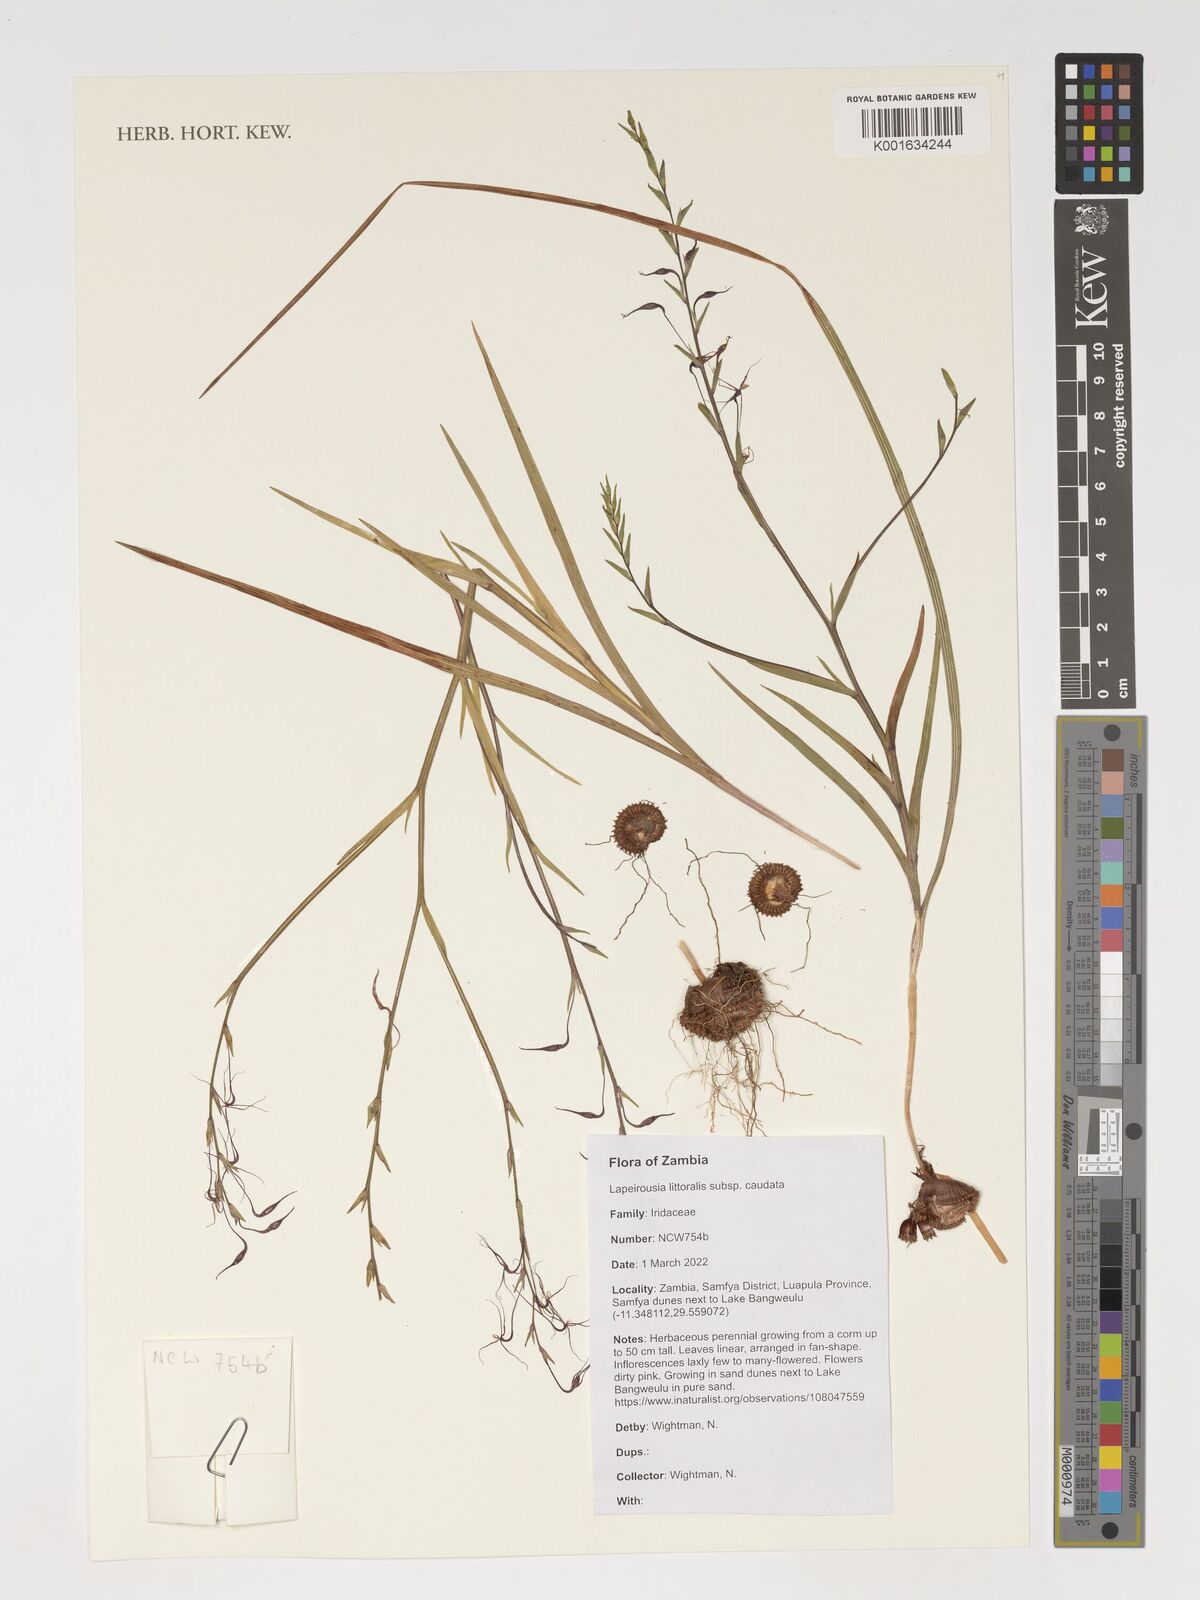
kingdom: Plantae
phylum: Tracheophyta
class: Liliopsida
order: Asparagales
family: Iridaceae
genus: Lapeirousia
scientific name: Lapeirousia littoralis
